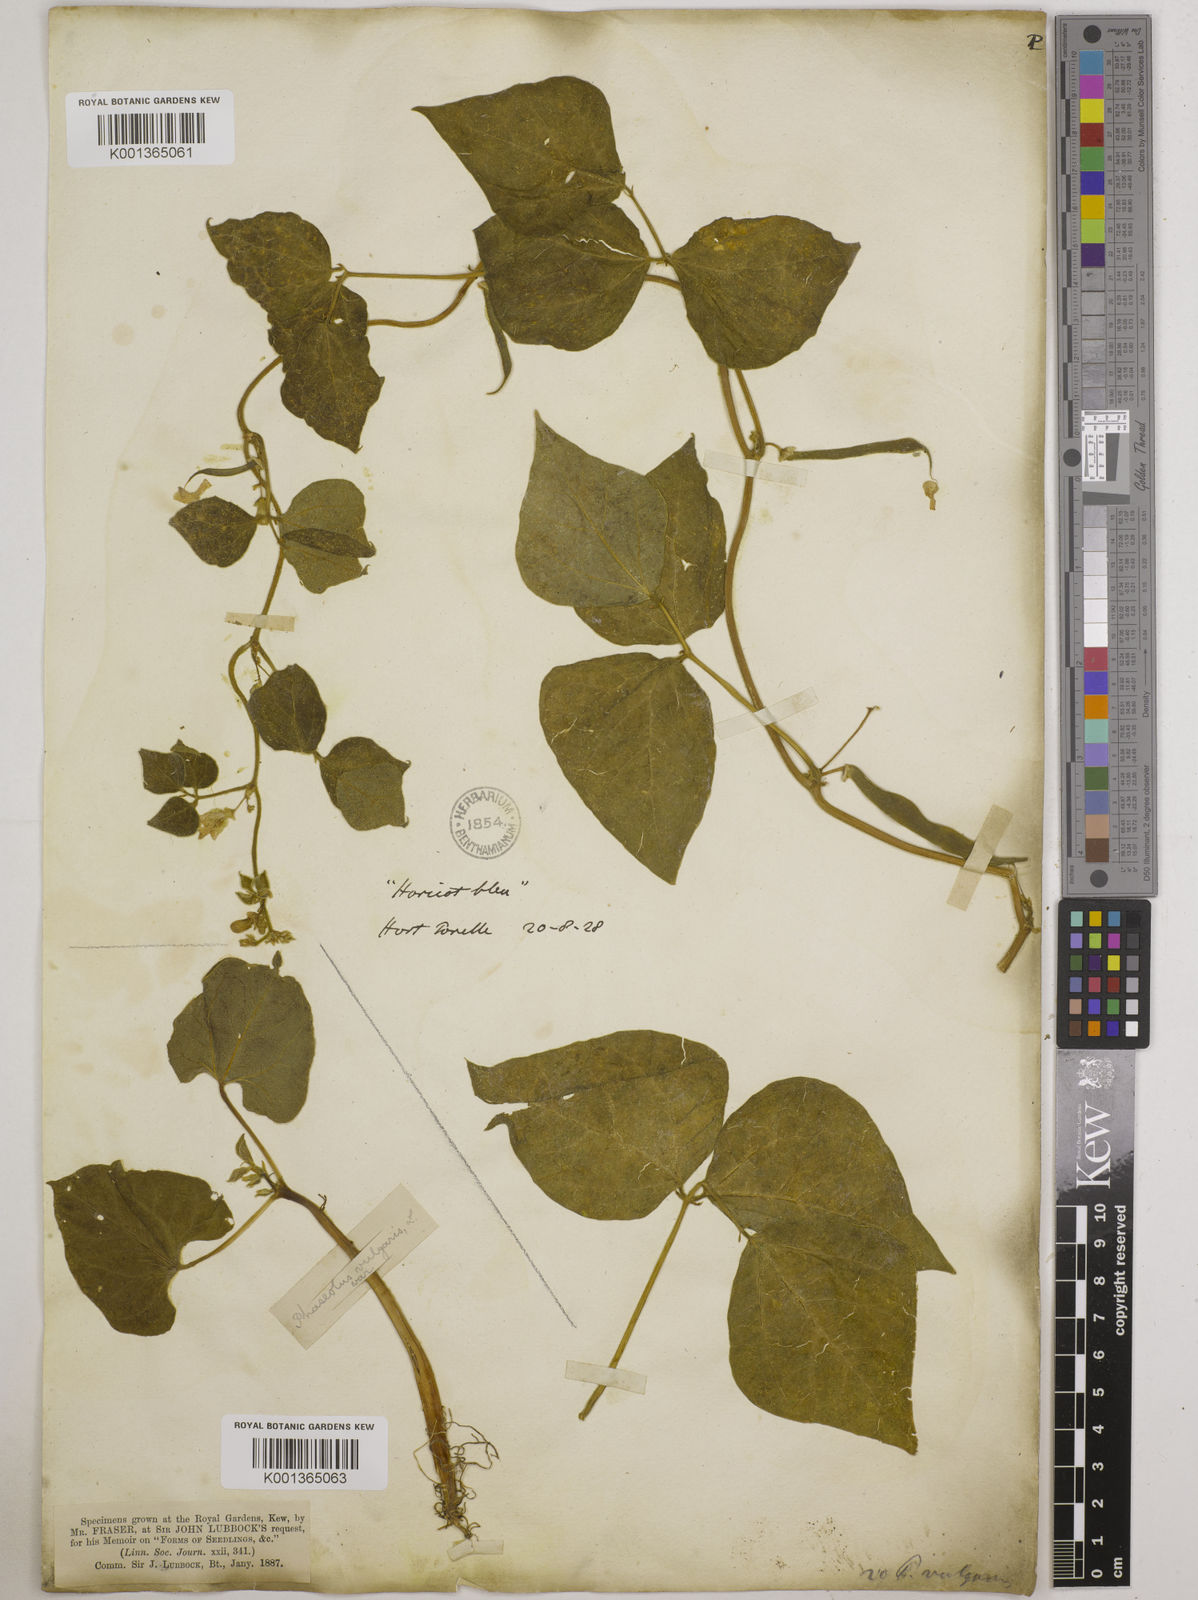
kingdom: Plantae
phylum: Tracheophyta
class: Magnoliopsida
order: Fabales
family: Fabaceae
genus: Phaseolus
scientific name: Phaseolus vulgaris
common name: Bean
